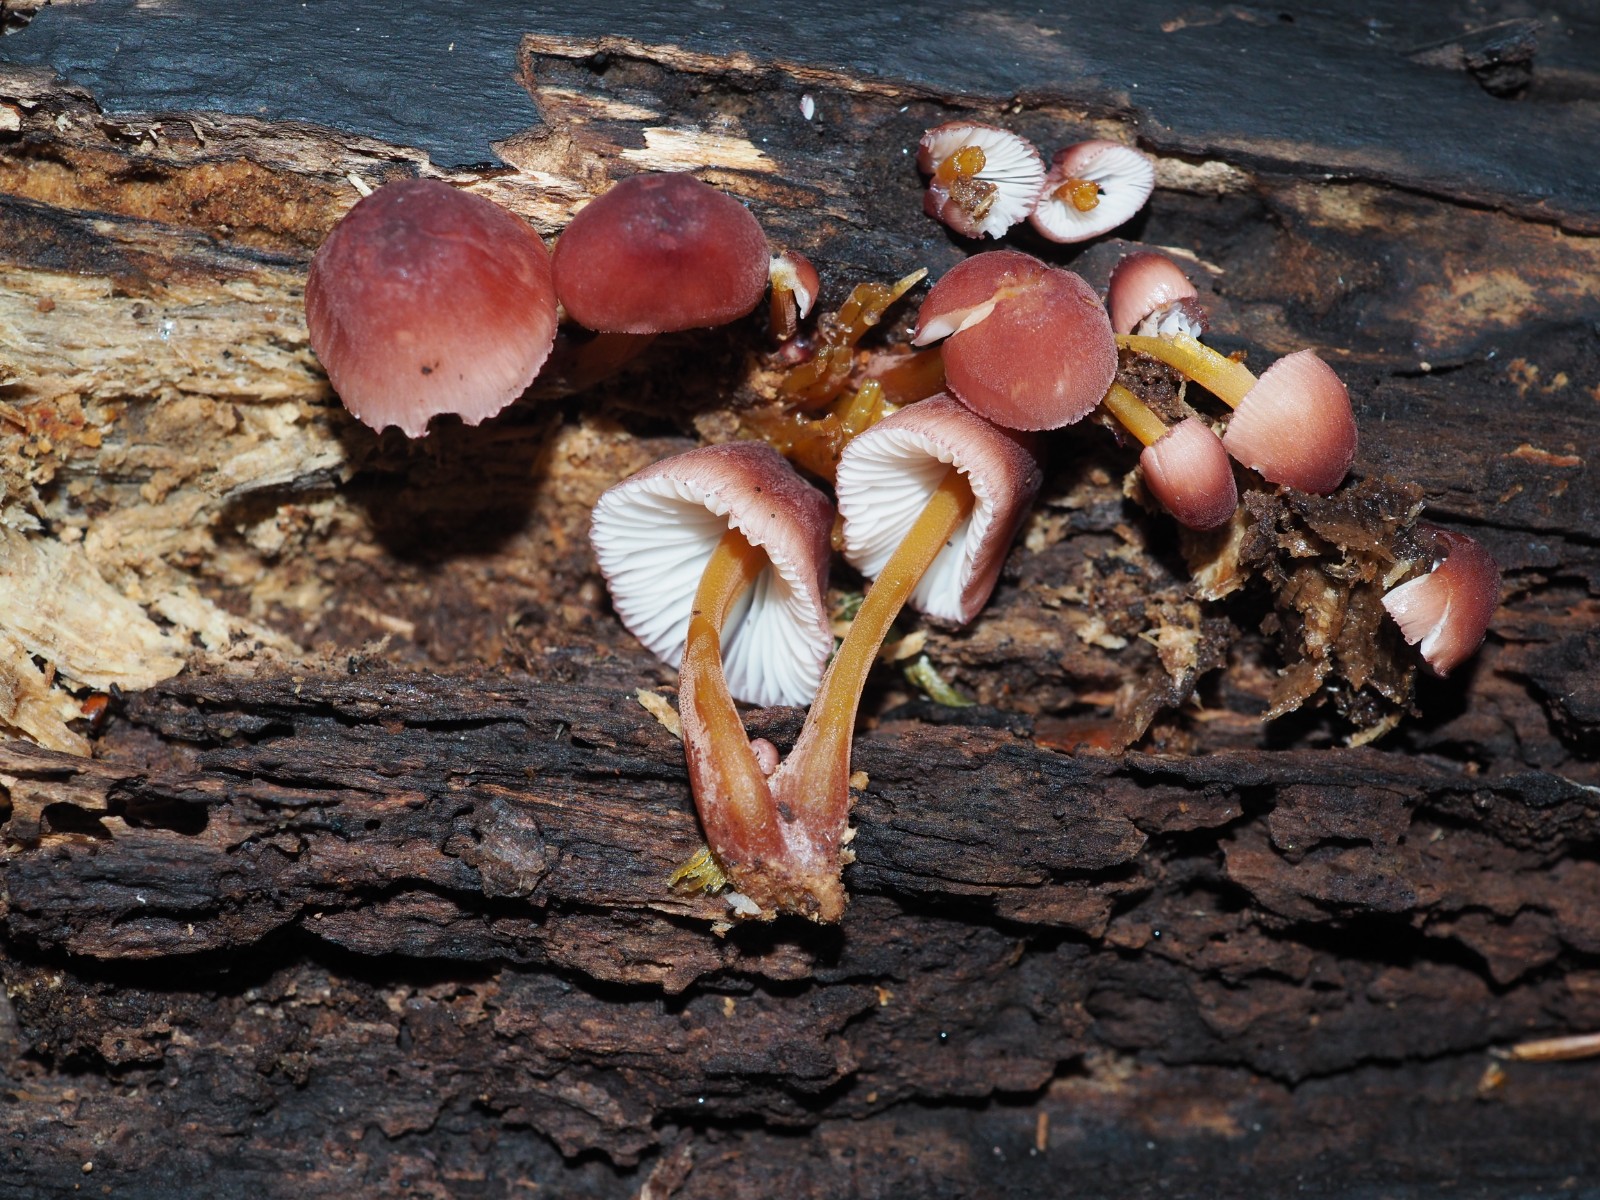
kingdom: Fungi
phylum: Basidiomycota
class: Agaricomycetes
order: Agaricales
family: Mycenaceae
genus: Mycena
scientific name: Mycena renati
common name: smuk huesvamp
